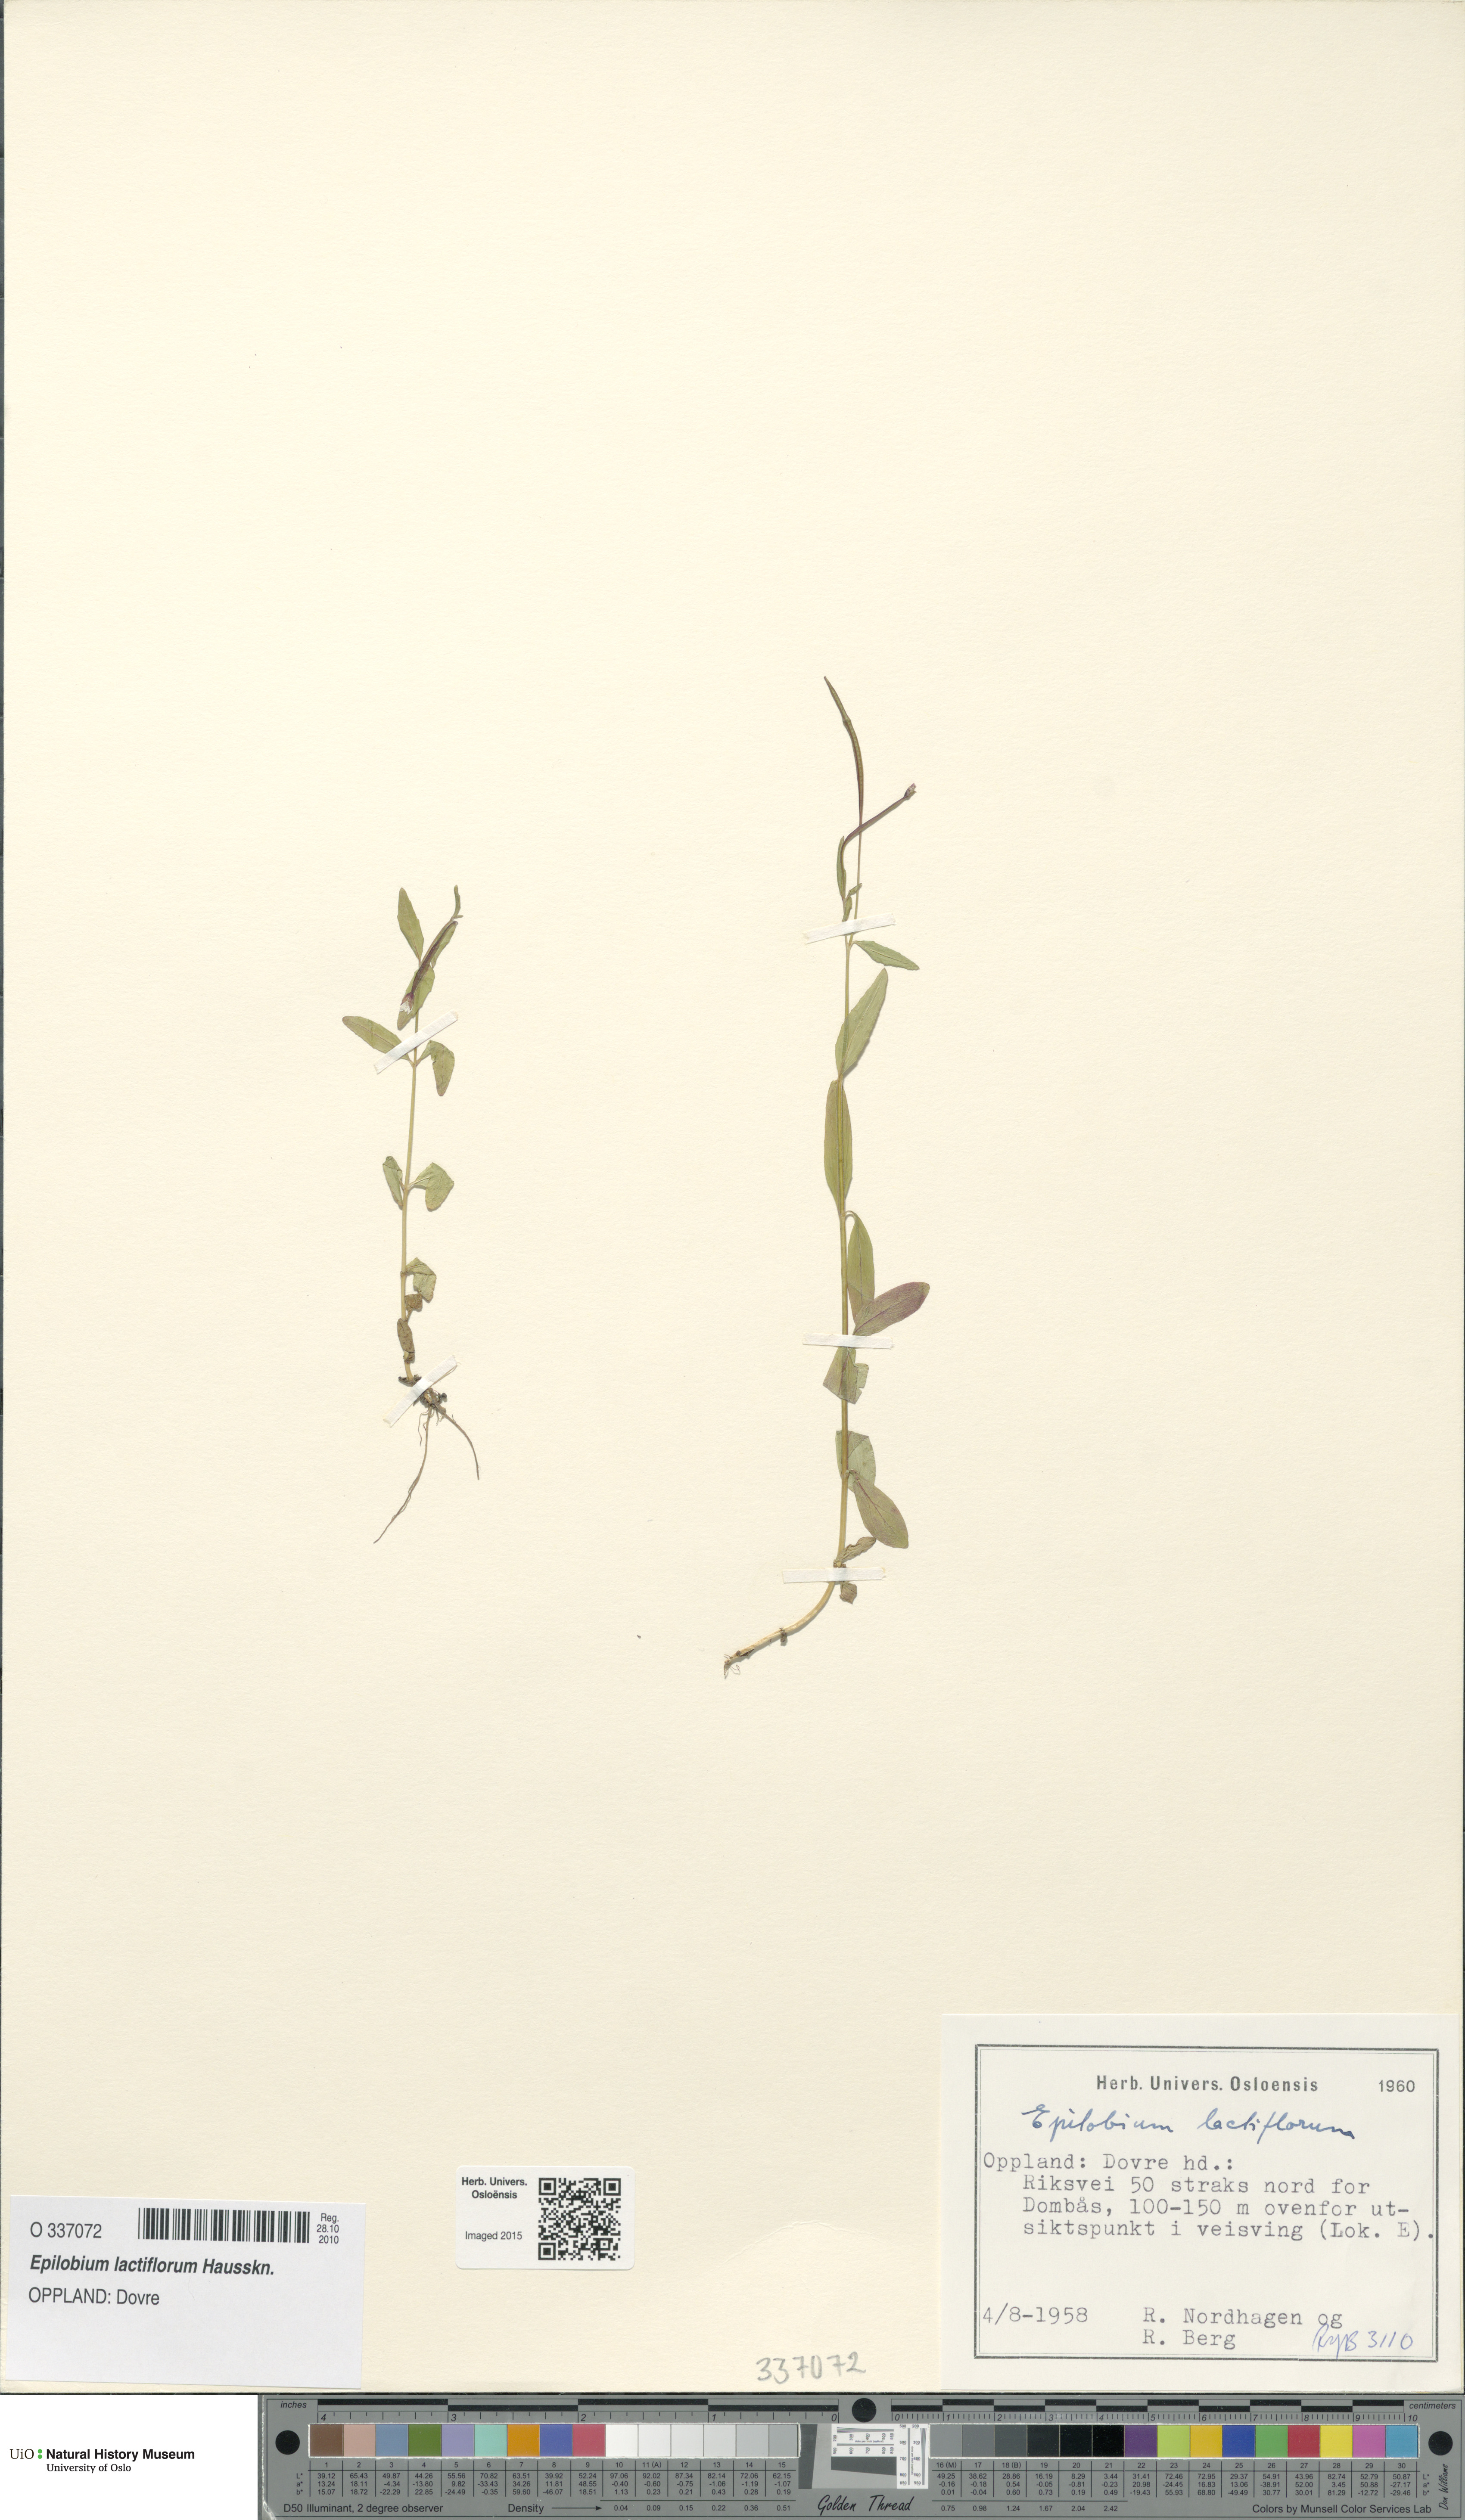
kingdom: Plantae
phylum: Tracheophyta
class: Magnoliopsida
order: Myrtales
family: Onagraceae
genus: Epilobium
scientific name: Epilobium lactiflorum
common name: Milkflower willowherb
